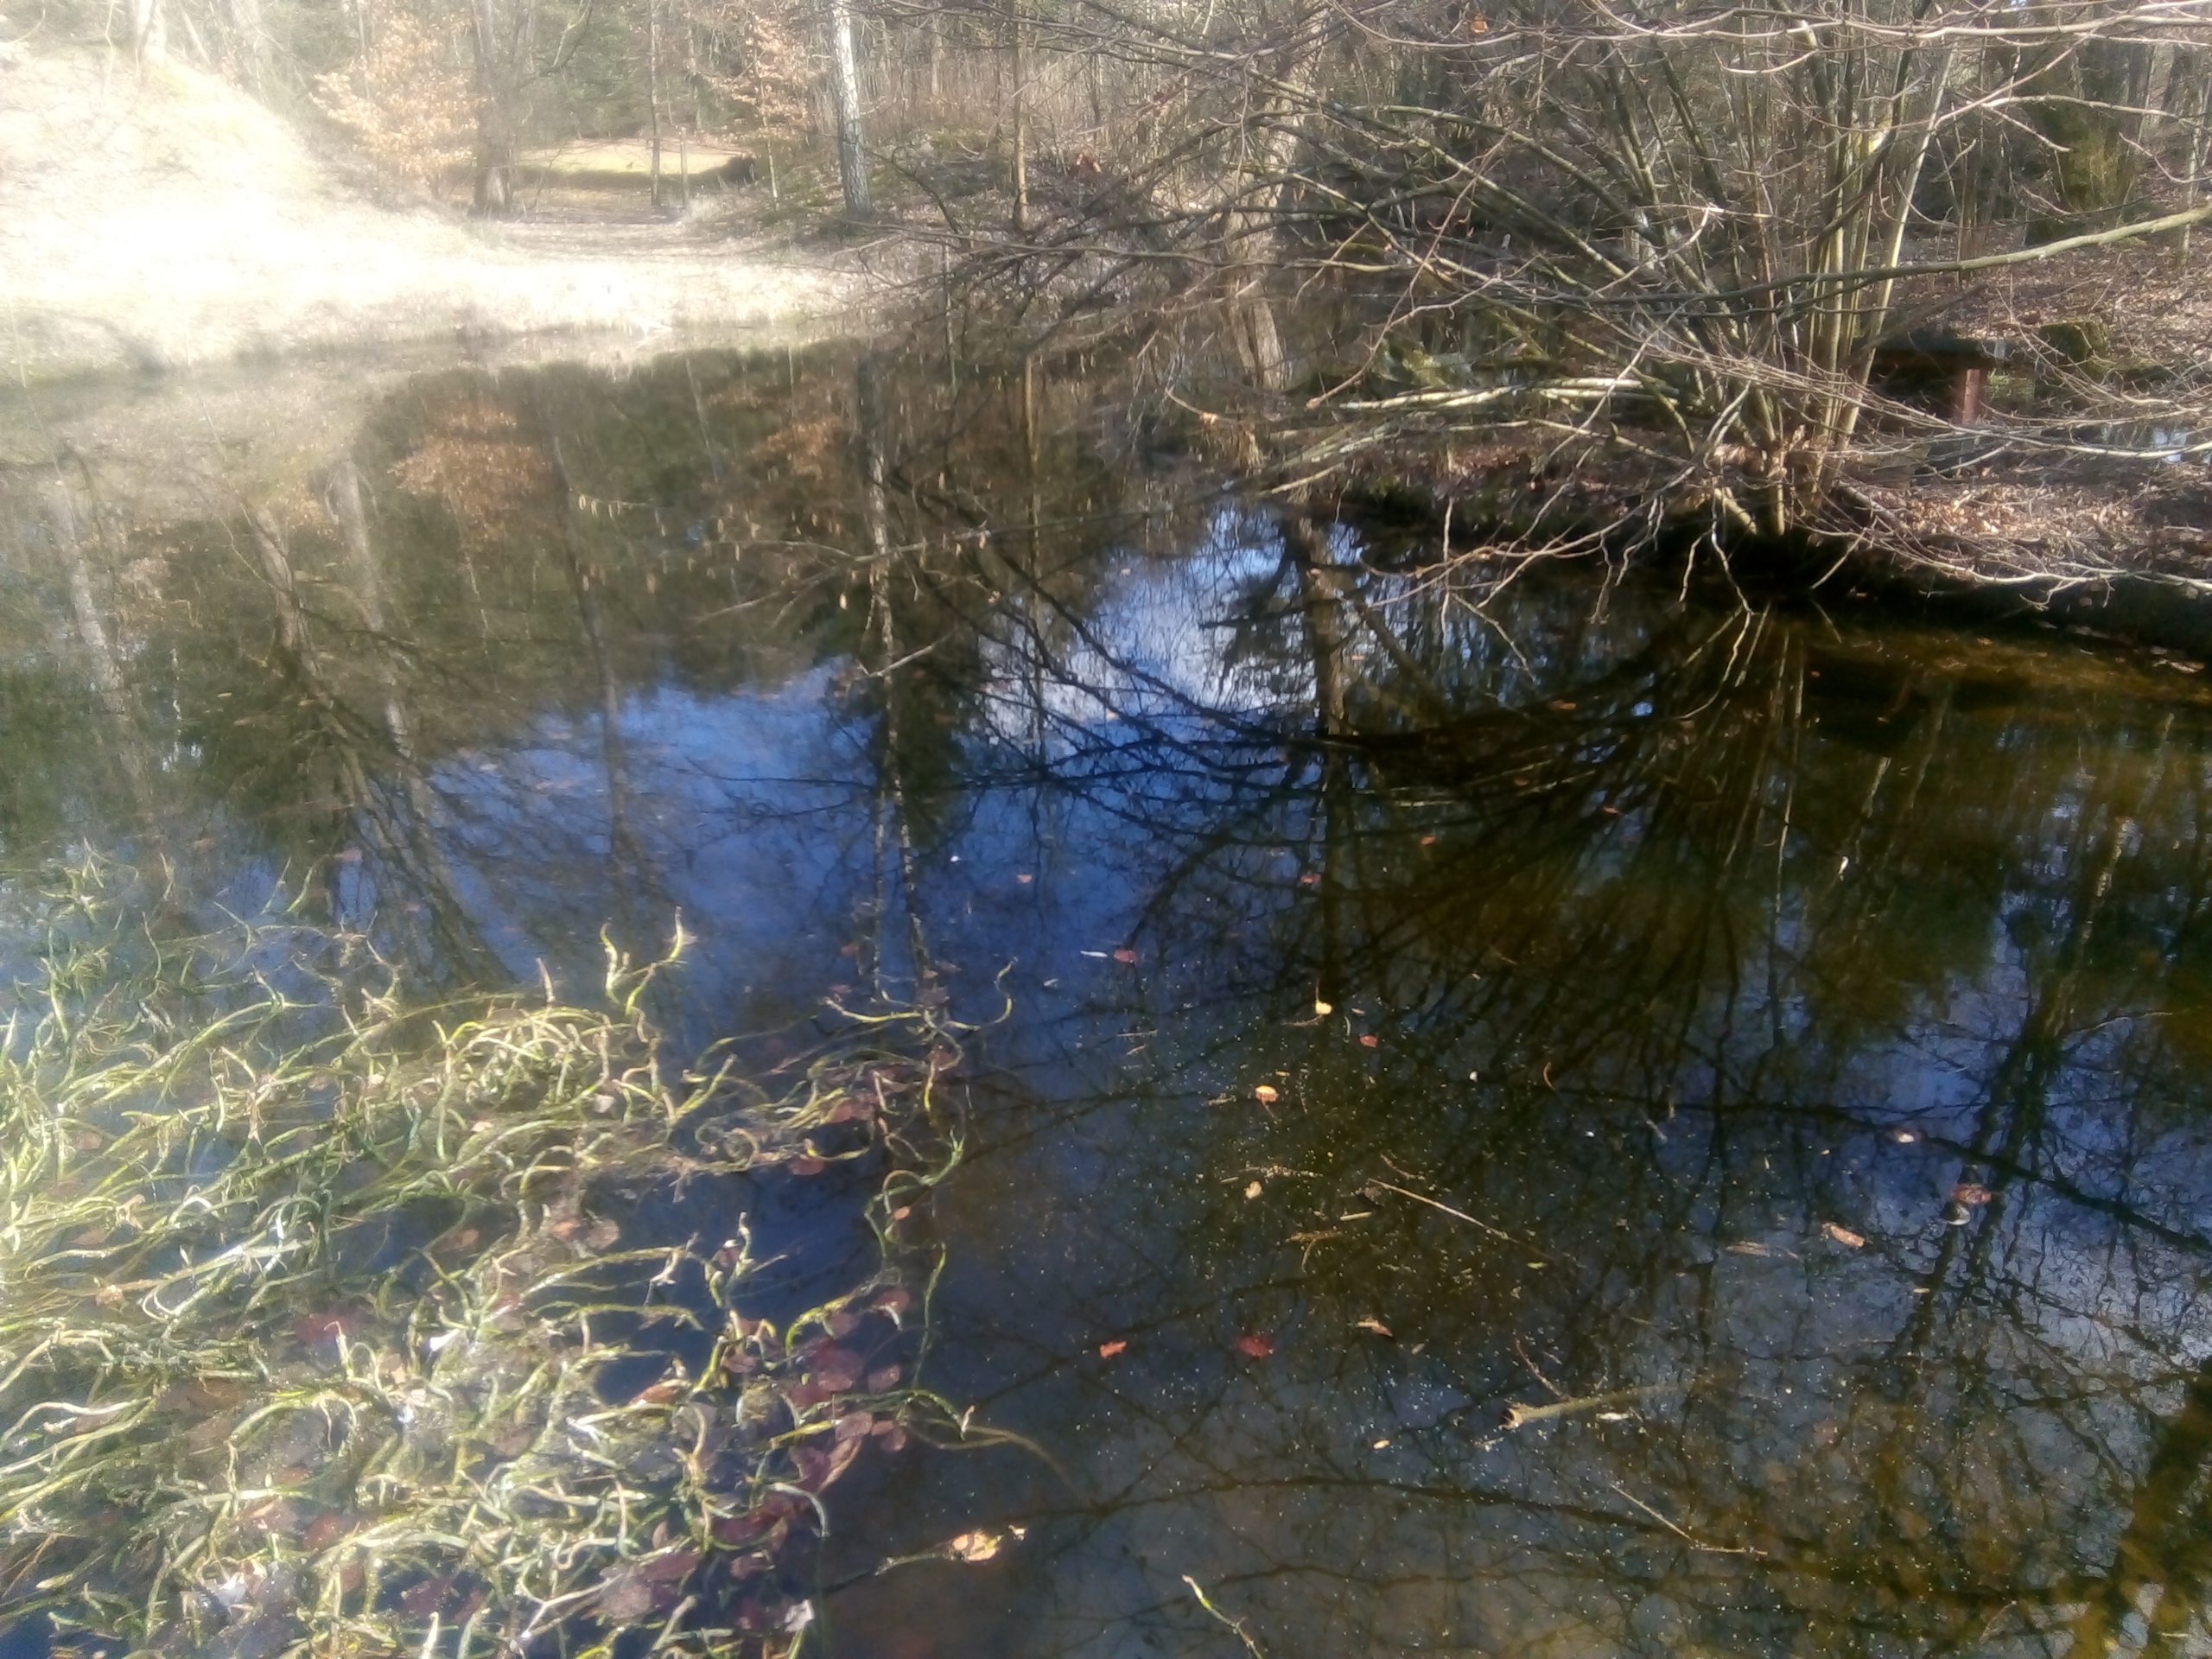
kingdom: Animalia
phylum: Chordata
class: Amphibia
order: Caudata
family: Salamandridae
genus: Lissotriton
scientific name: Lissotriton vulgaris
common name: Lille vandsalamander
